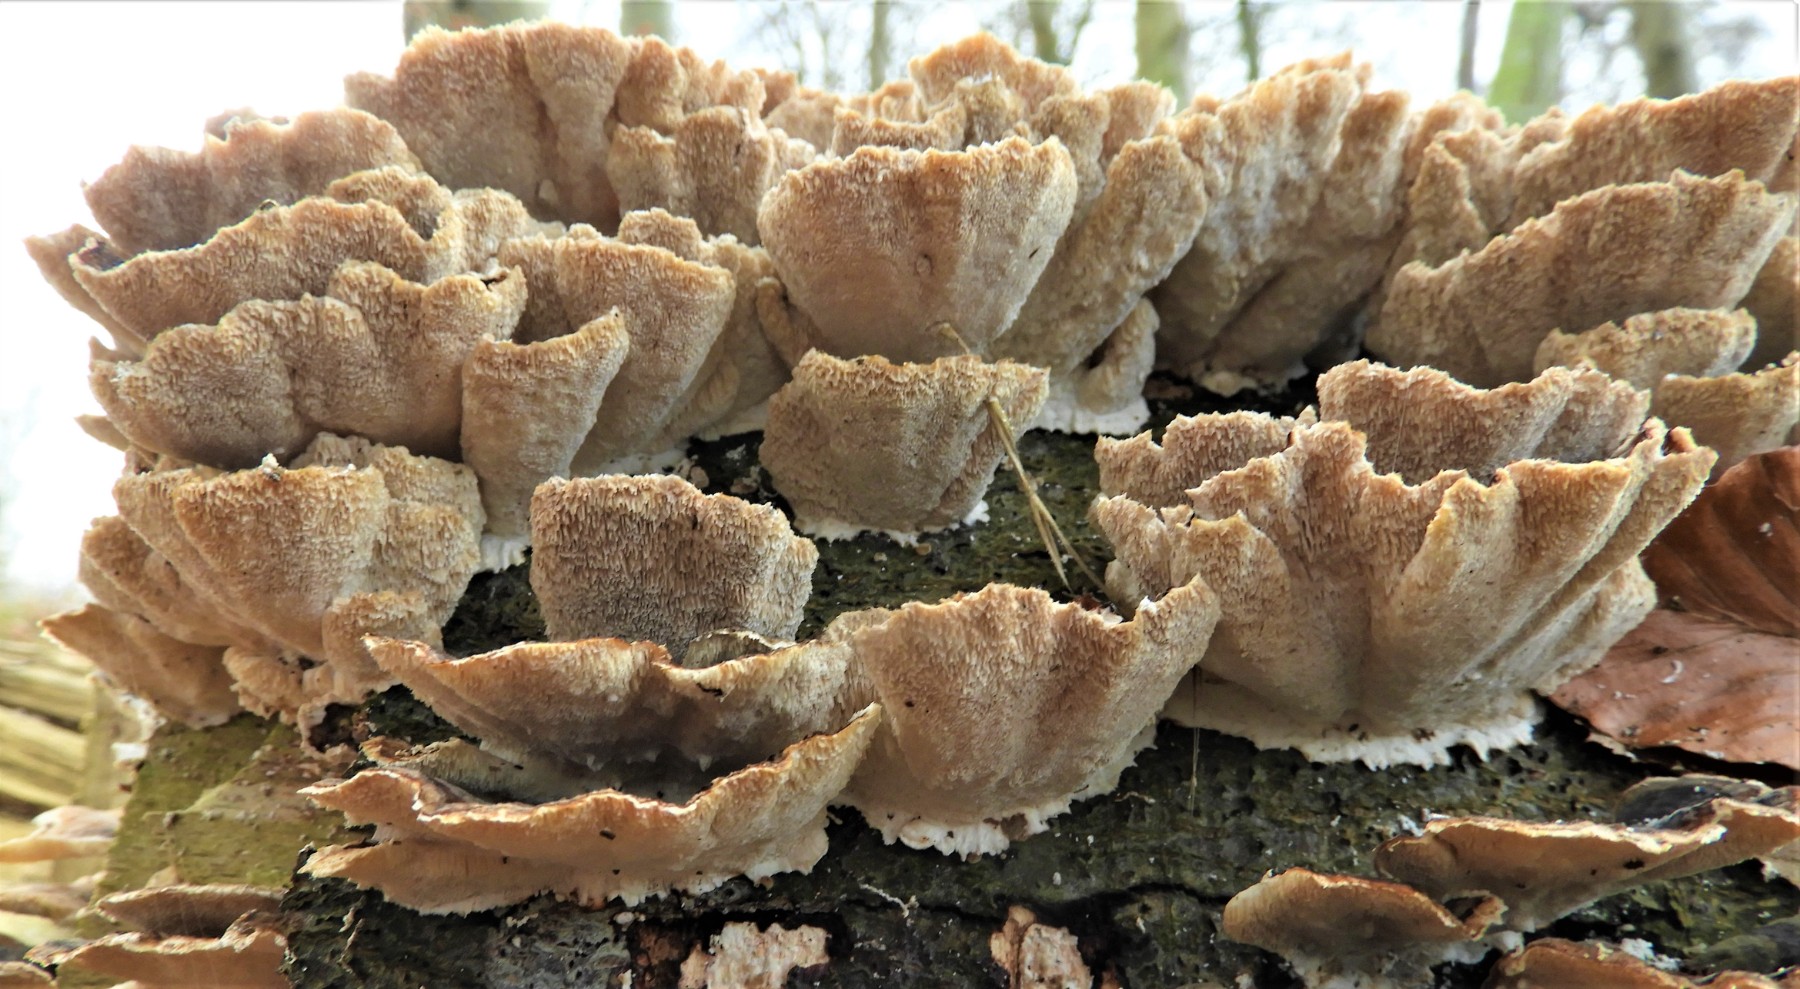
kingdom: Fungi
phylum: Basidiomycota
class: Agaricomycetes
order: Polyporales
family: Polyporaceae
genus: Trametes
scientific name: Trametes versicolor
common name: broget læderporesvamp
